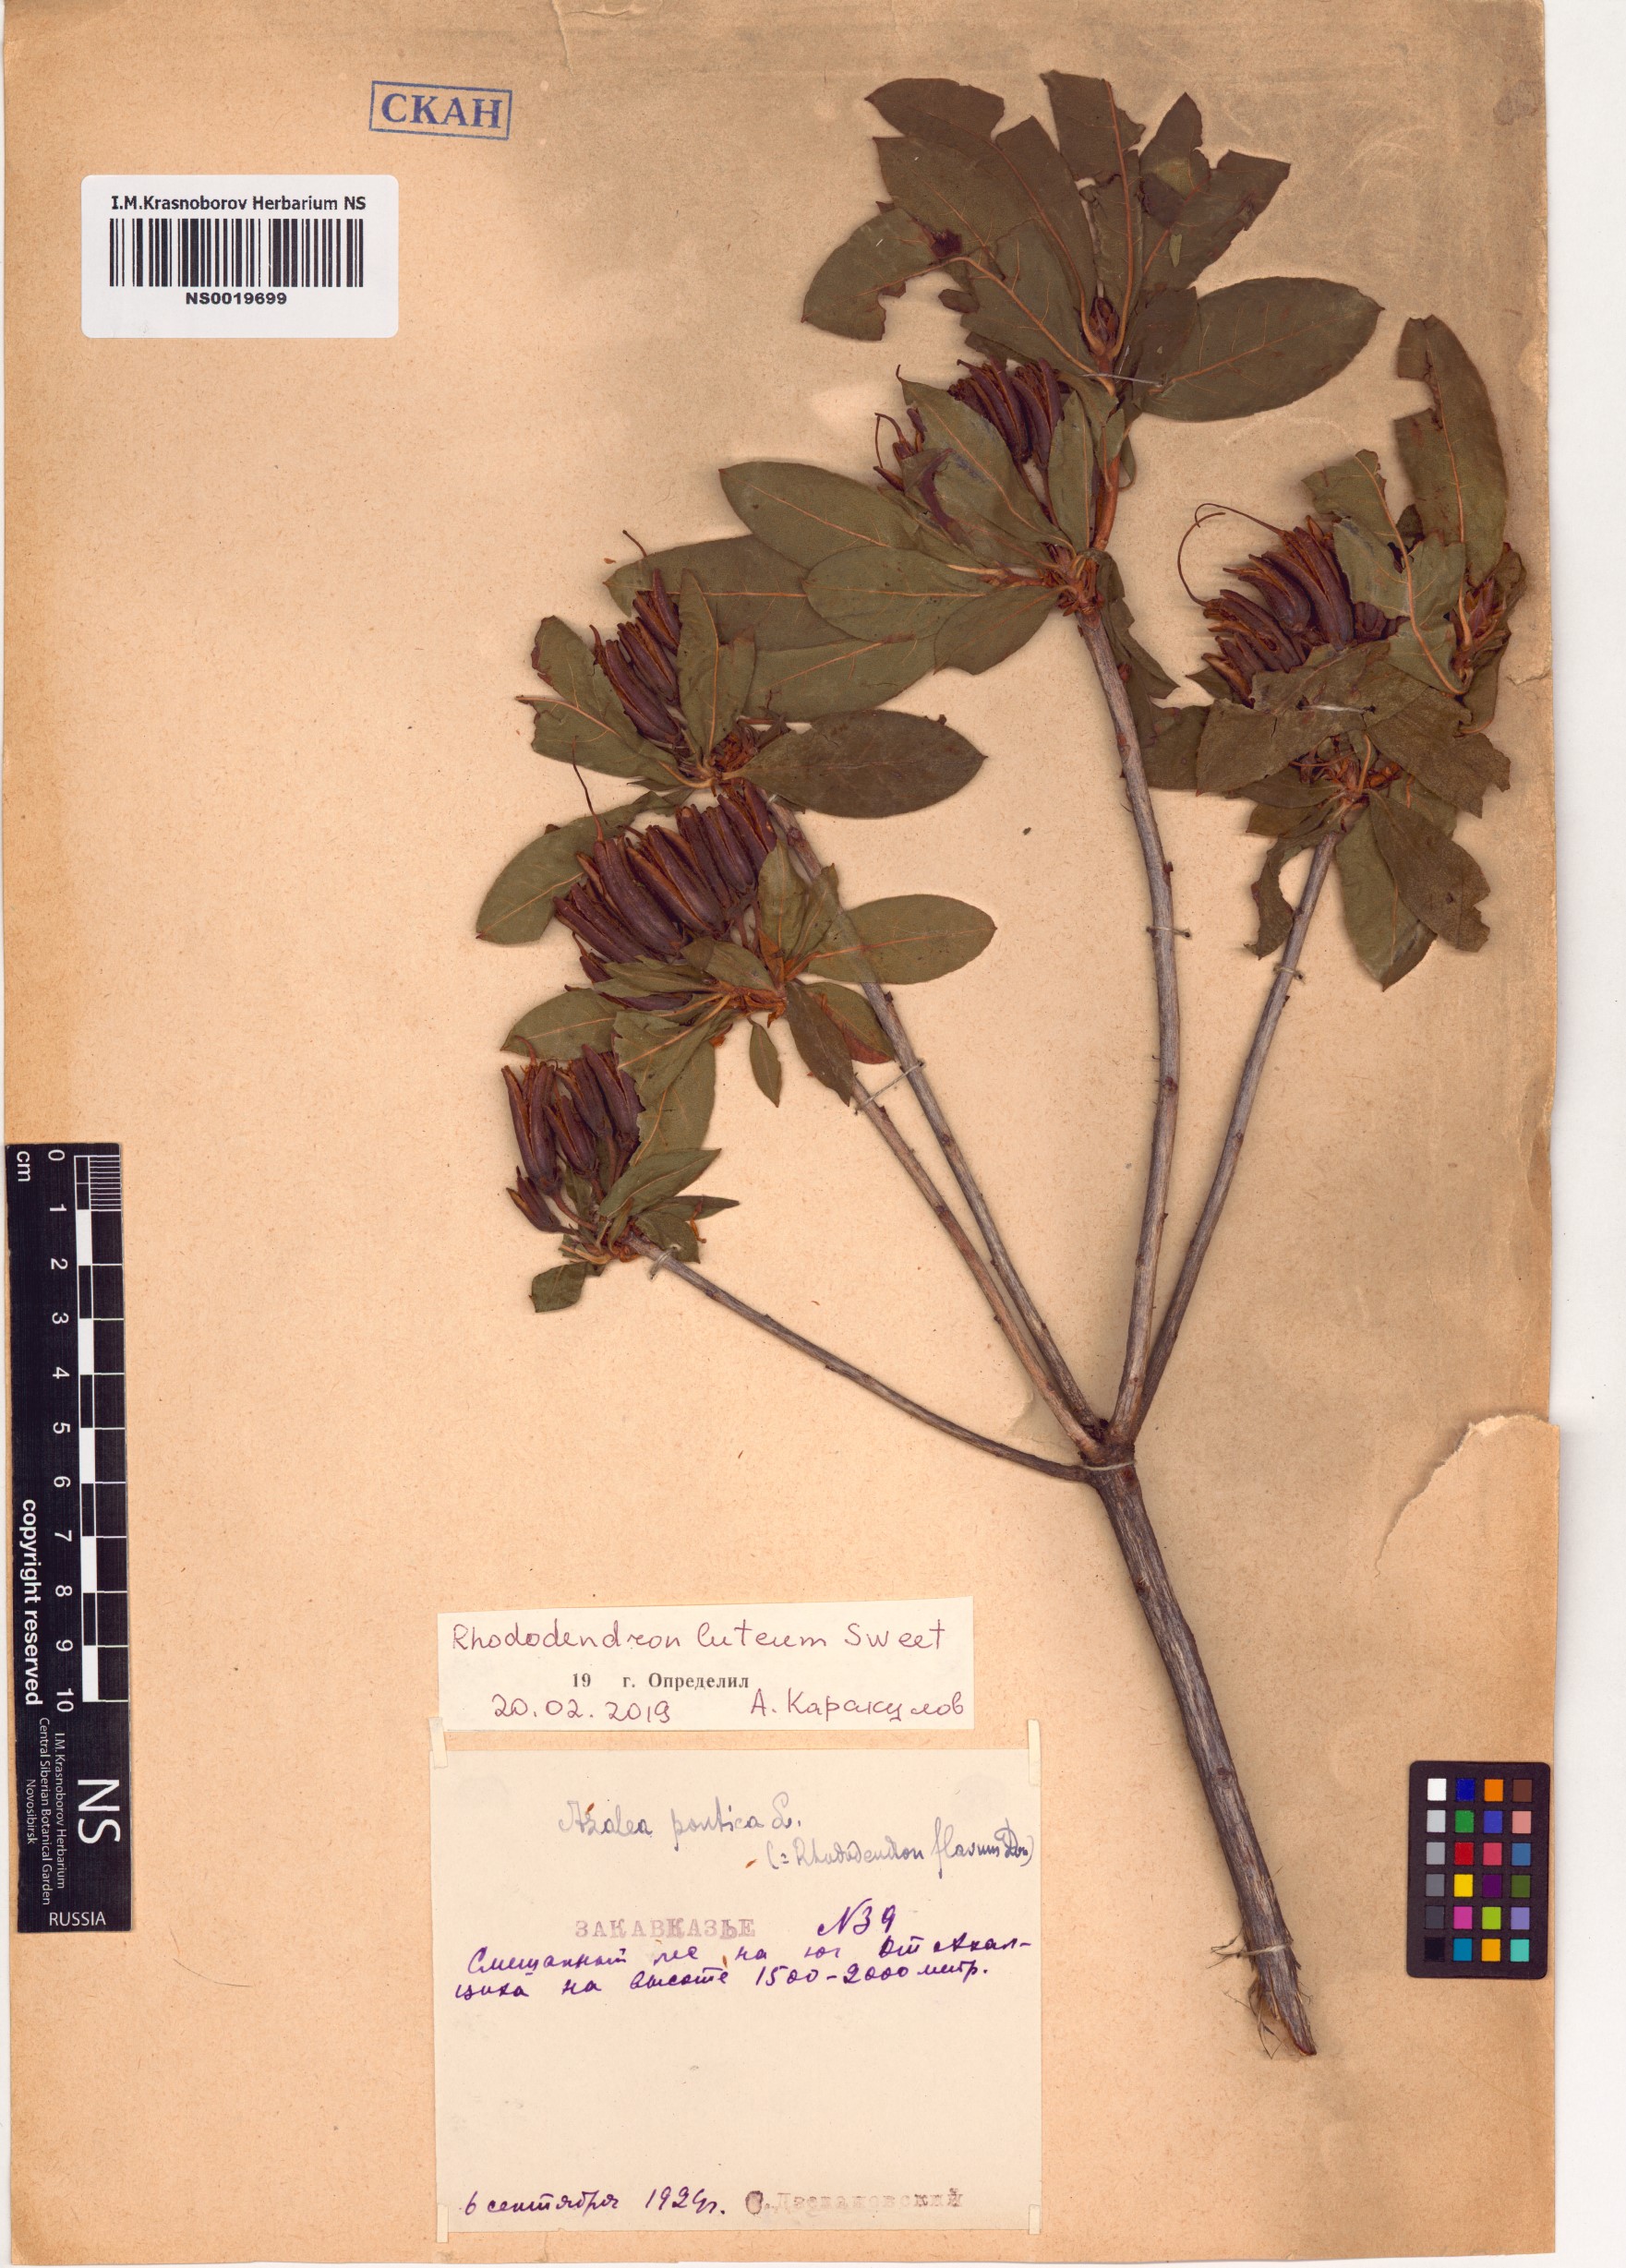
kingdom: Plantae
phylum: Tracheophyta
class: Magnoliopsida
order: Ericales
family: Ericaceae
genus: Rhododendron
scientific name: Rhododendron luteum
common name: Yellow azalea
